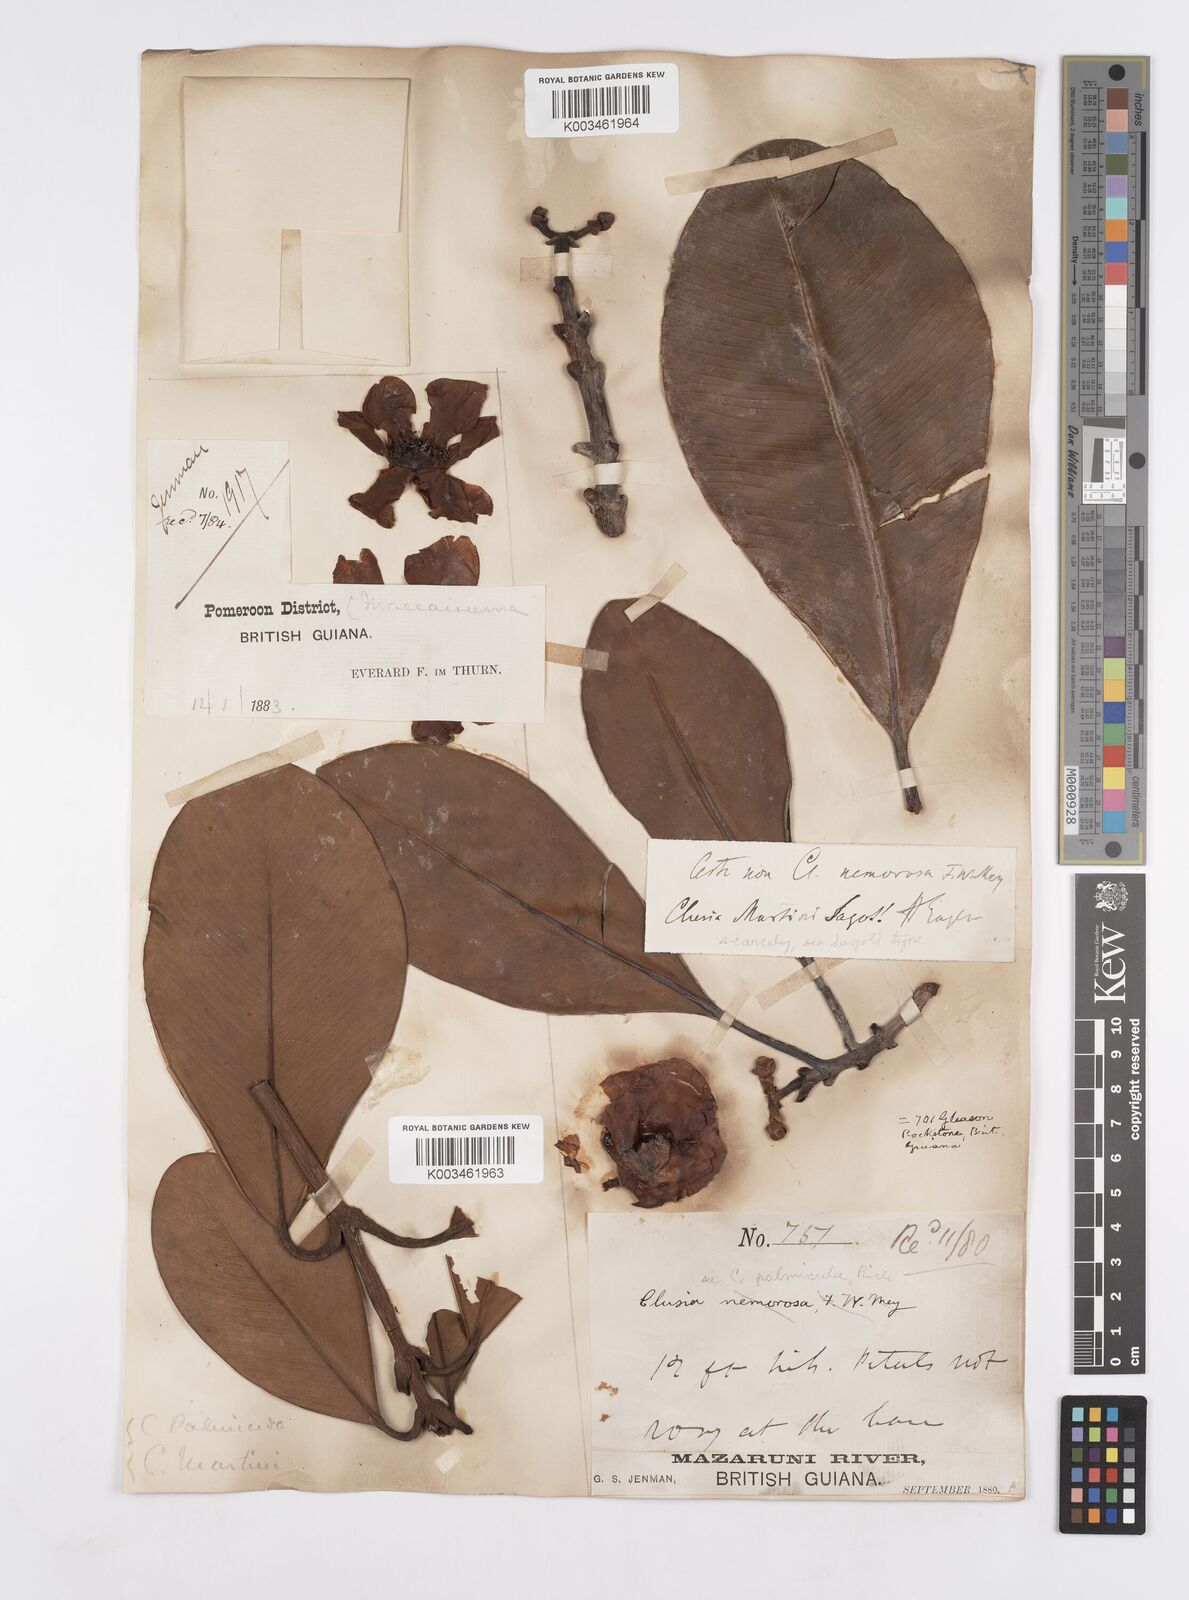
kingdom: Plantae
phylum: Tracheophyta
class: Magnoliopsida
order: Malpighiales
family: Clusiaceae
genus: Clusia
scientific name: Clusia palmicida
